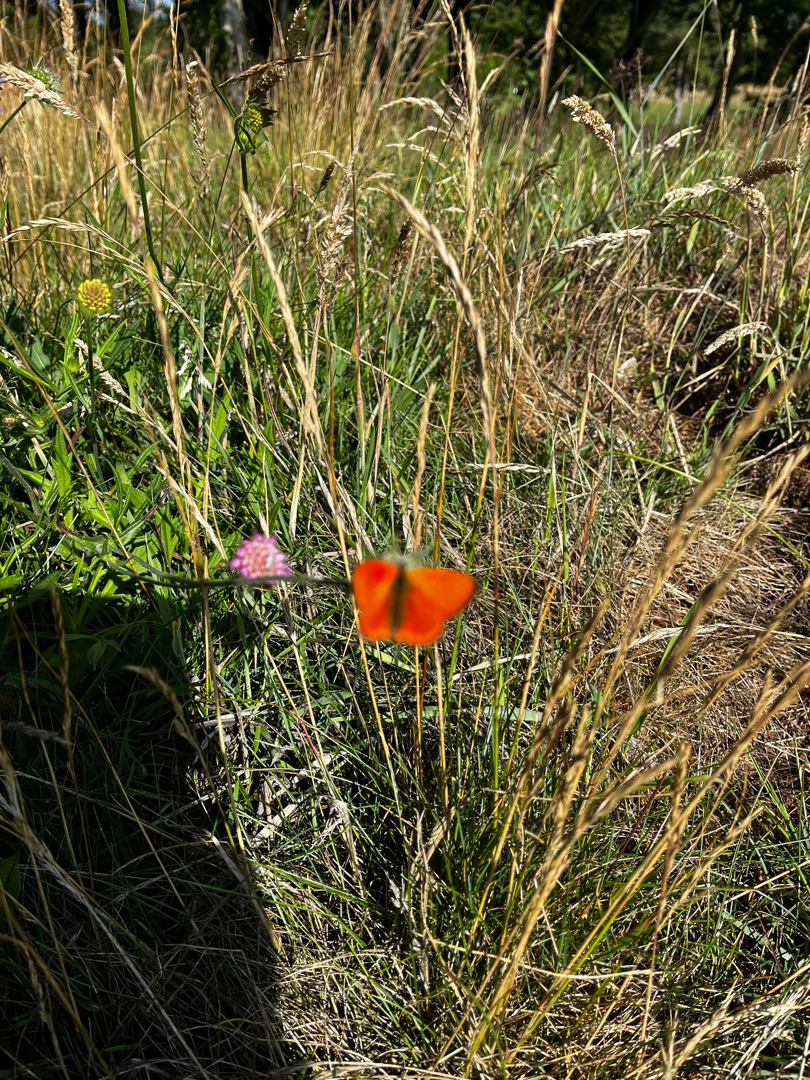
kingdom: Animalia
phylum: Arthropoda
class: Insecta
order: Lepidoptera
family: Lycaenidae
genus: Lycaena
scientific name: Lycaena virgaureae
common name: Dukatsommerfugl
